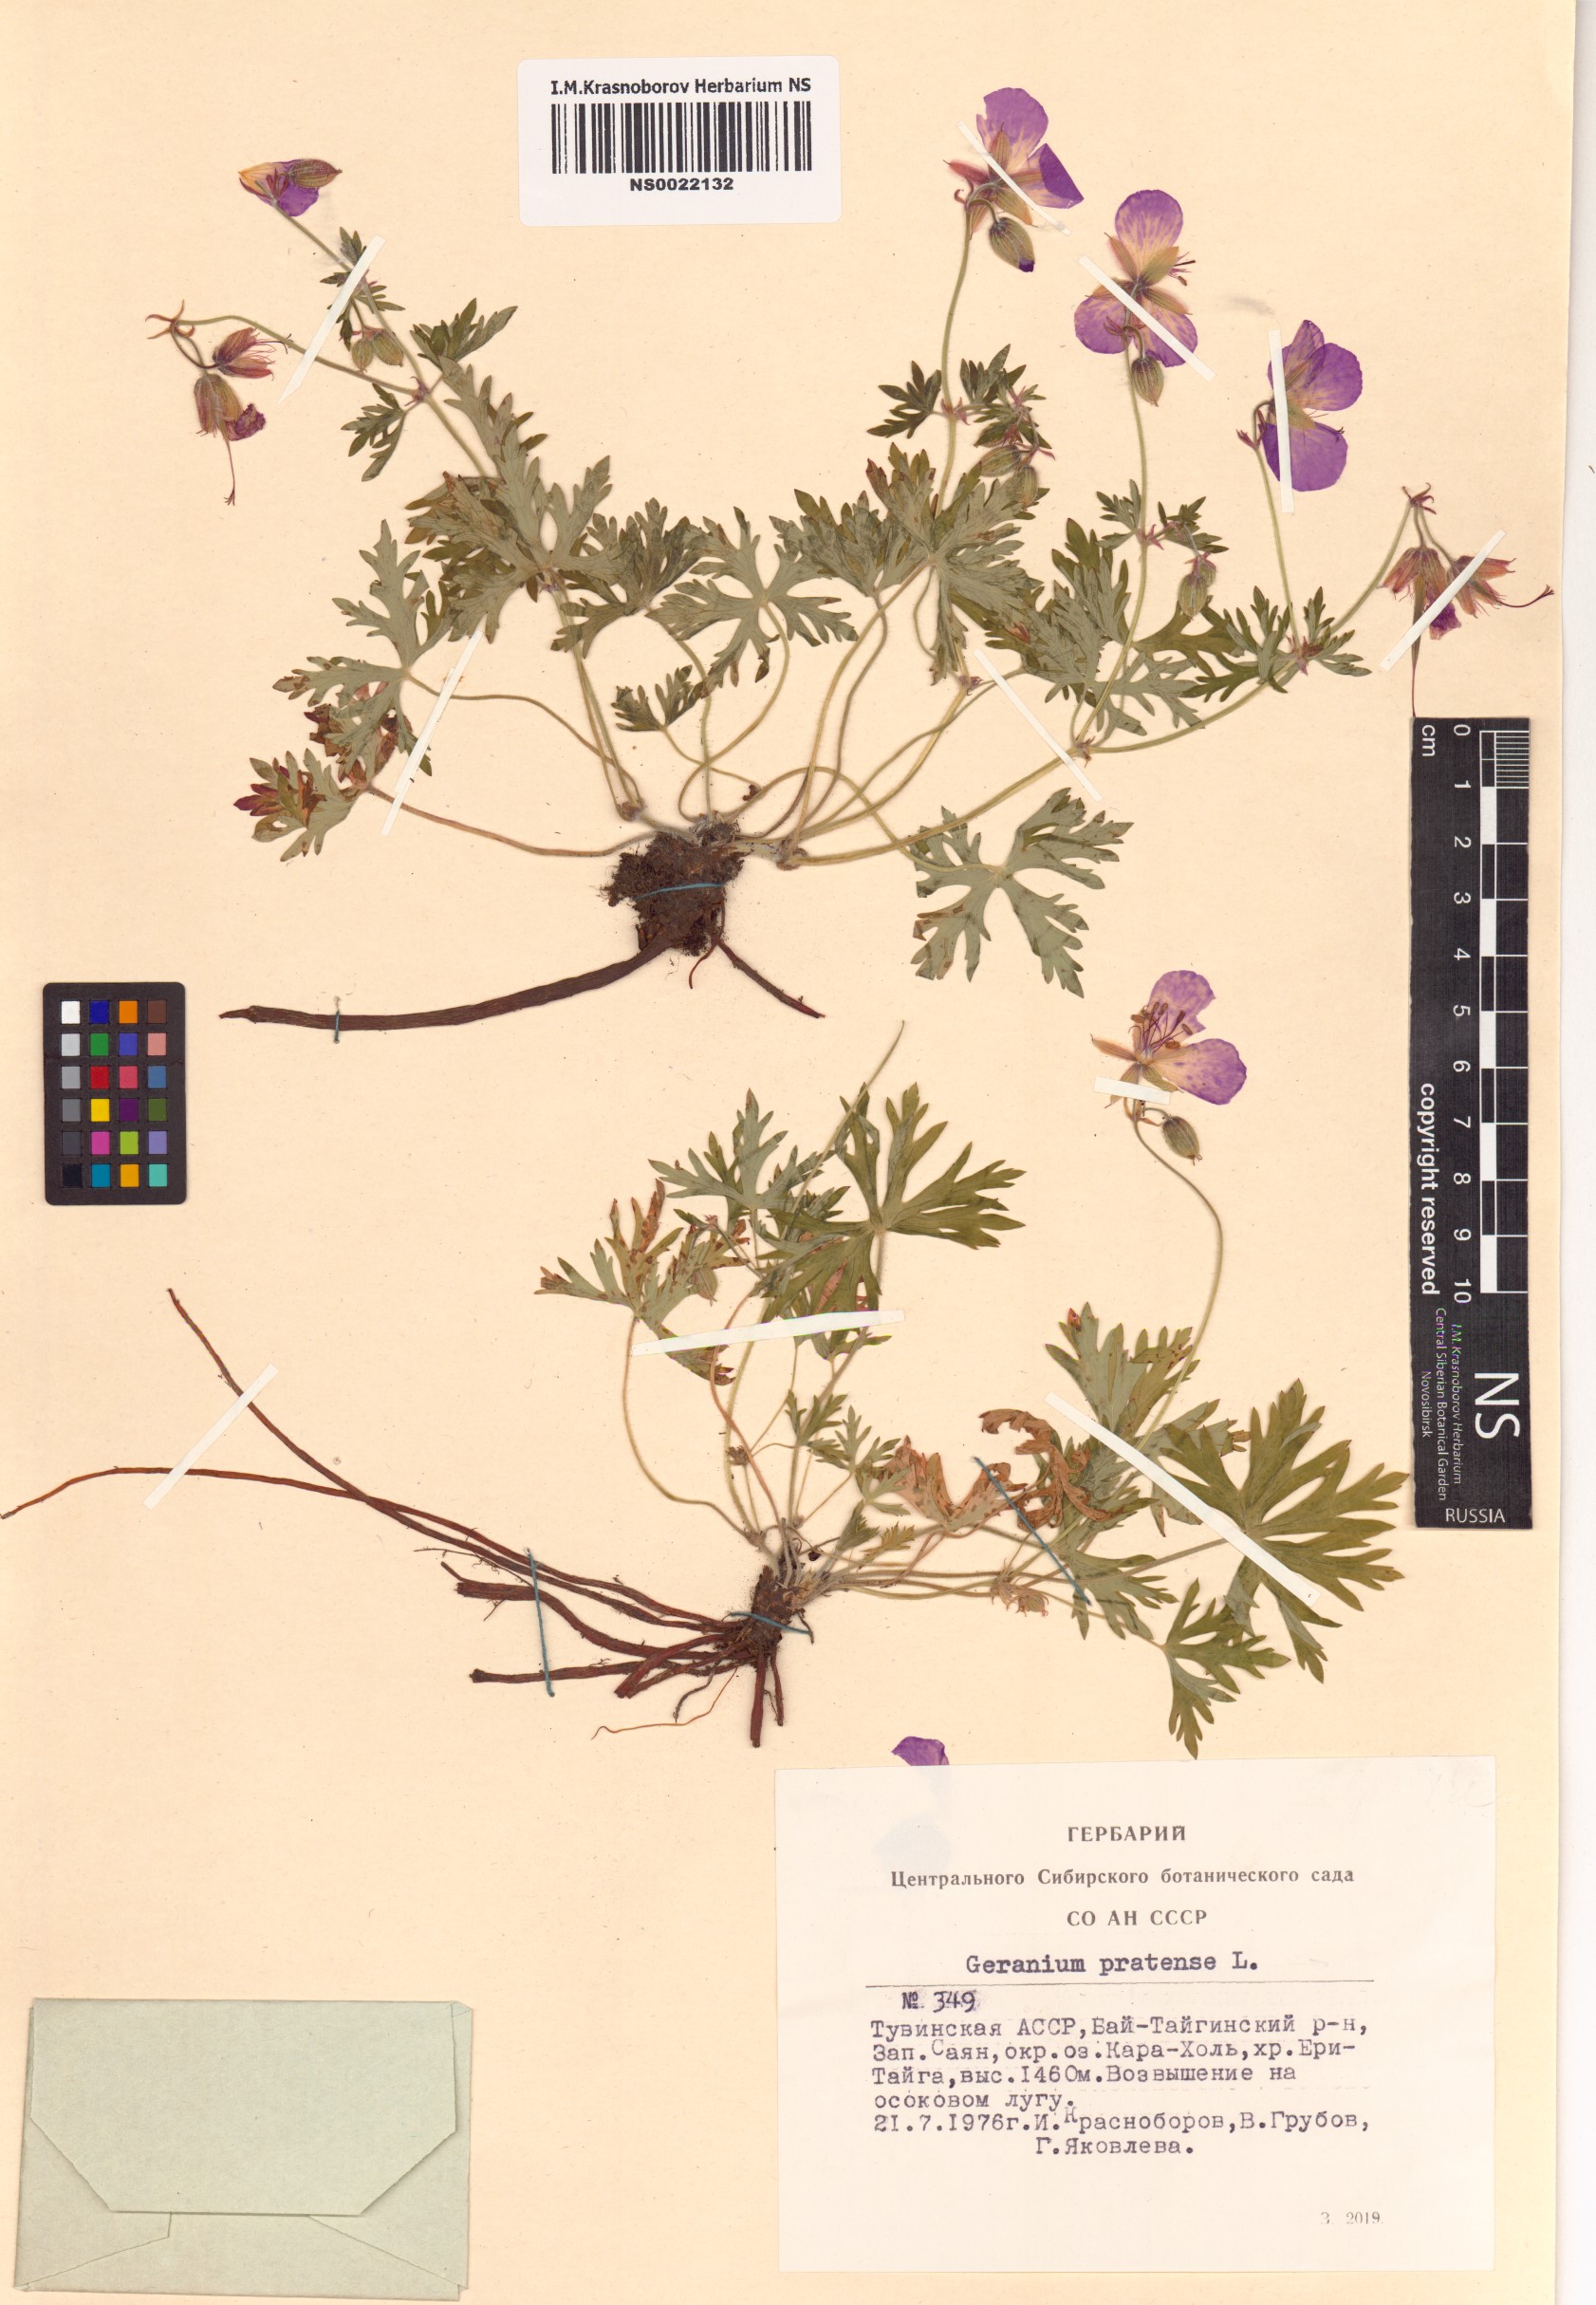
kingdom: Plantae
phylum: Tracheophyta
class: Magnoliopsida
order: Geraniales
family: Geraniaceae
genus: Geranium
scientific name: Geranium pratense
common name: Meadow crane's-bill
